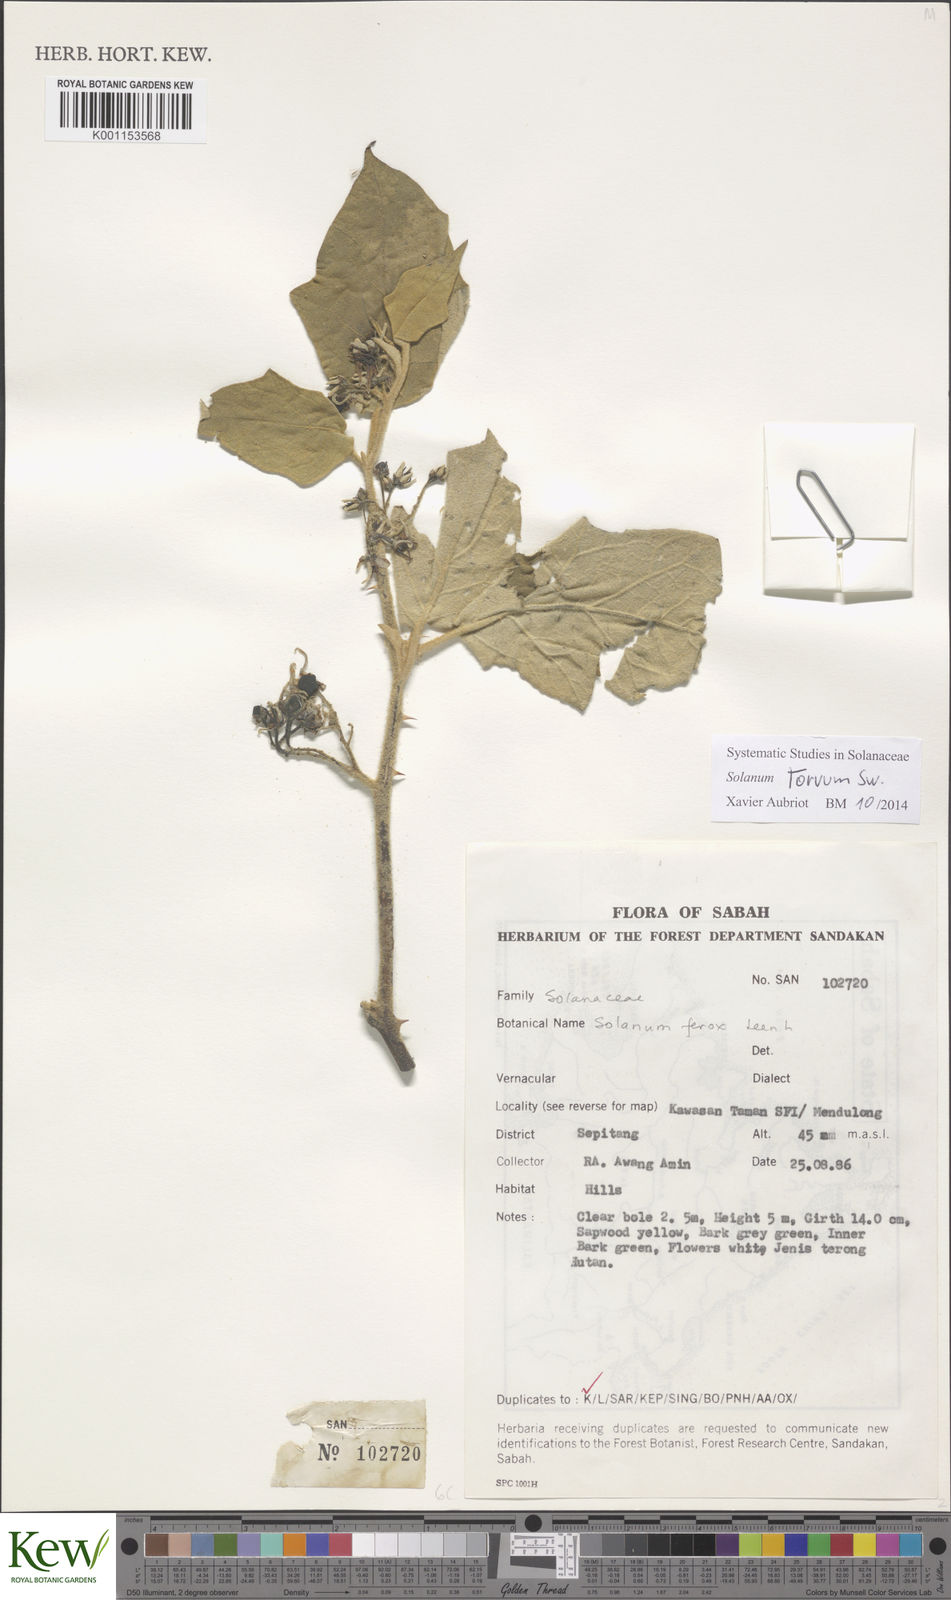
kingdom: Plantae
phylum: Tracheophyta
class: Magnoliopsida
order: Solanales
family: Solanaceae
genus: Solanum
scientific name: Solanum torvum
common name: Turkey berry
